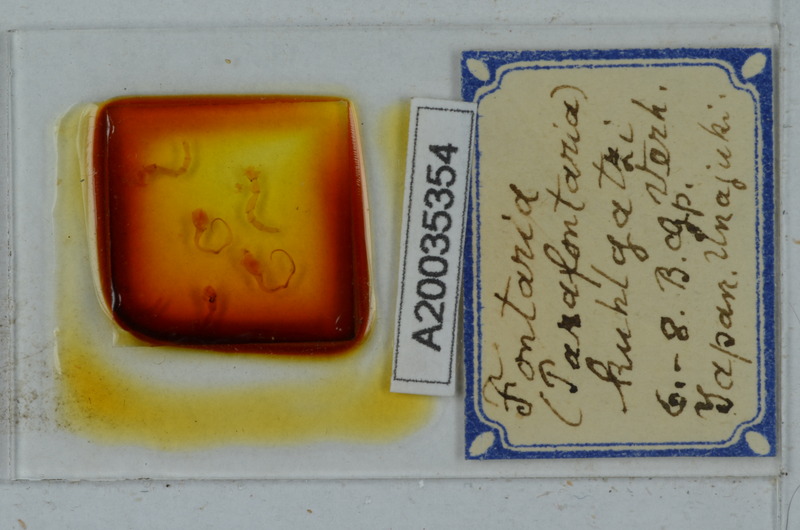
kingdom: Animalia
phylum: Arthropoda
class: Diplopoda
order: Polydesmida
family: Xystodesmidae
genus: Parafontaria
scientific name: Parafontaria tonominea
